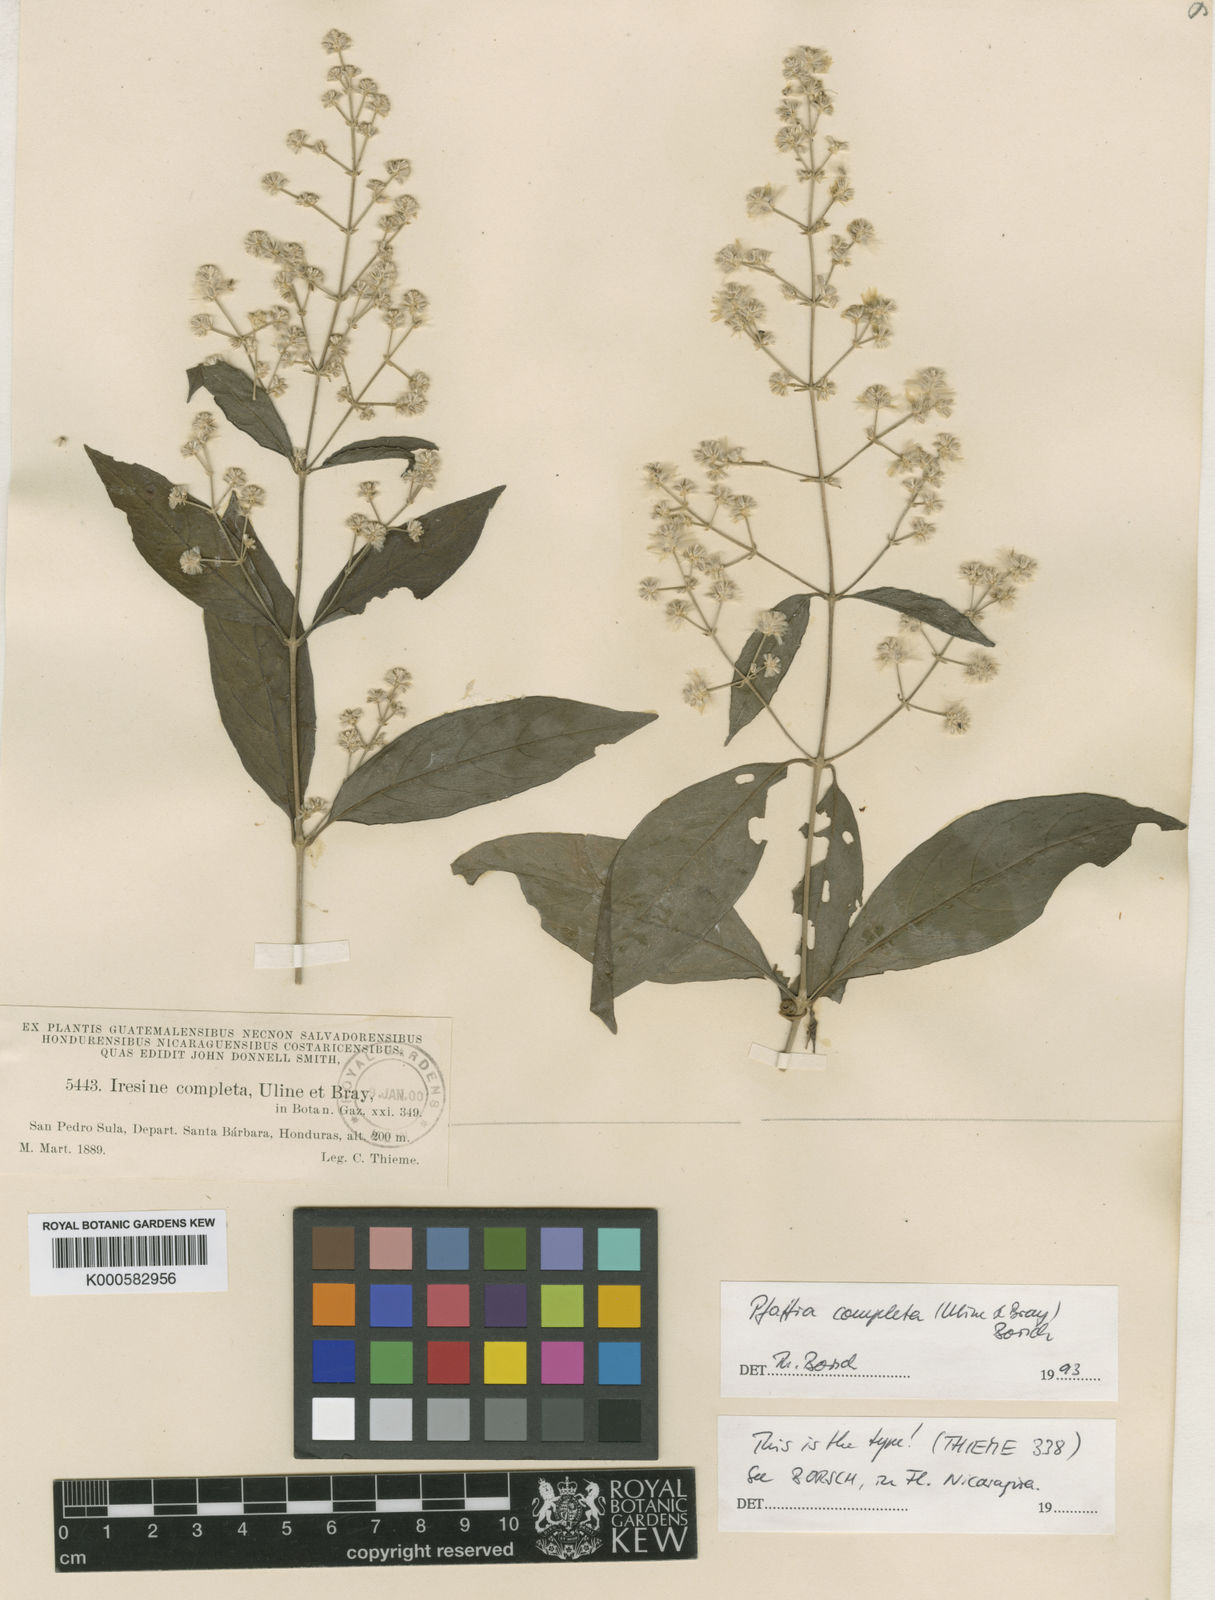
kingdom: Plantae
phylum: Tracheophyta
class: Magnoliopsida
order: Caryophyllales
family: Amaranthaceae
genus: Pedersenia
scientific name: Pedersenia completa
